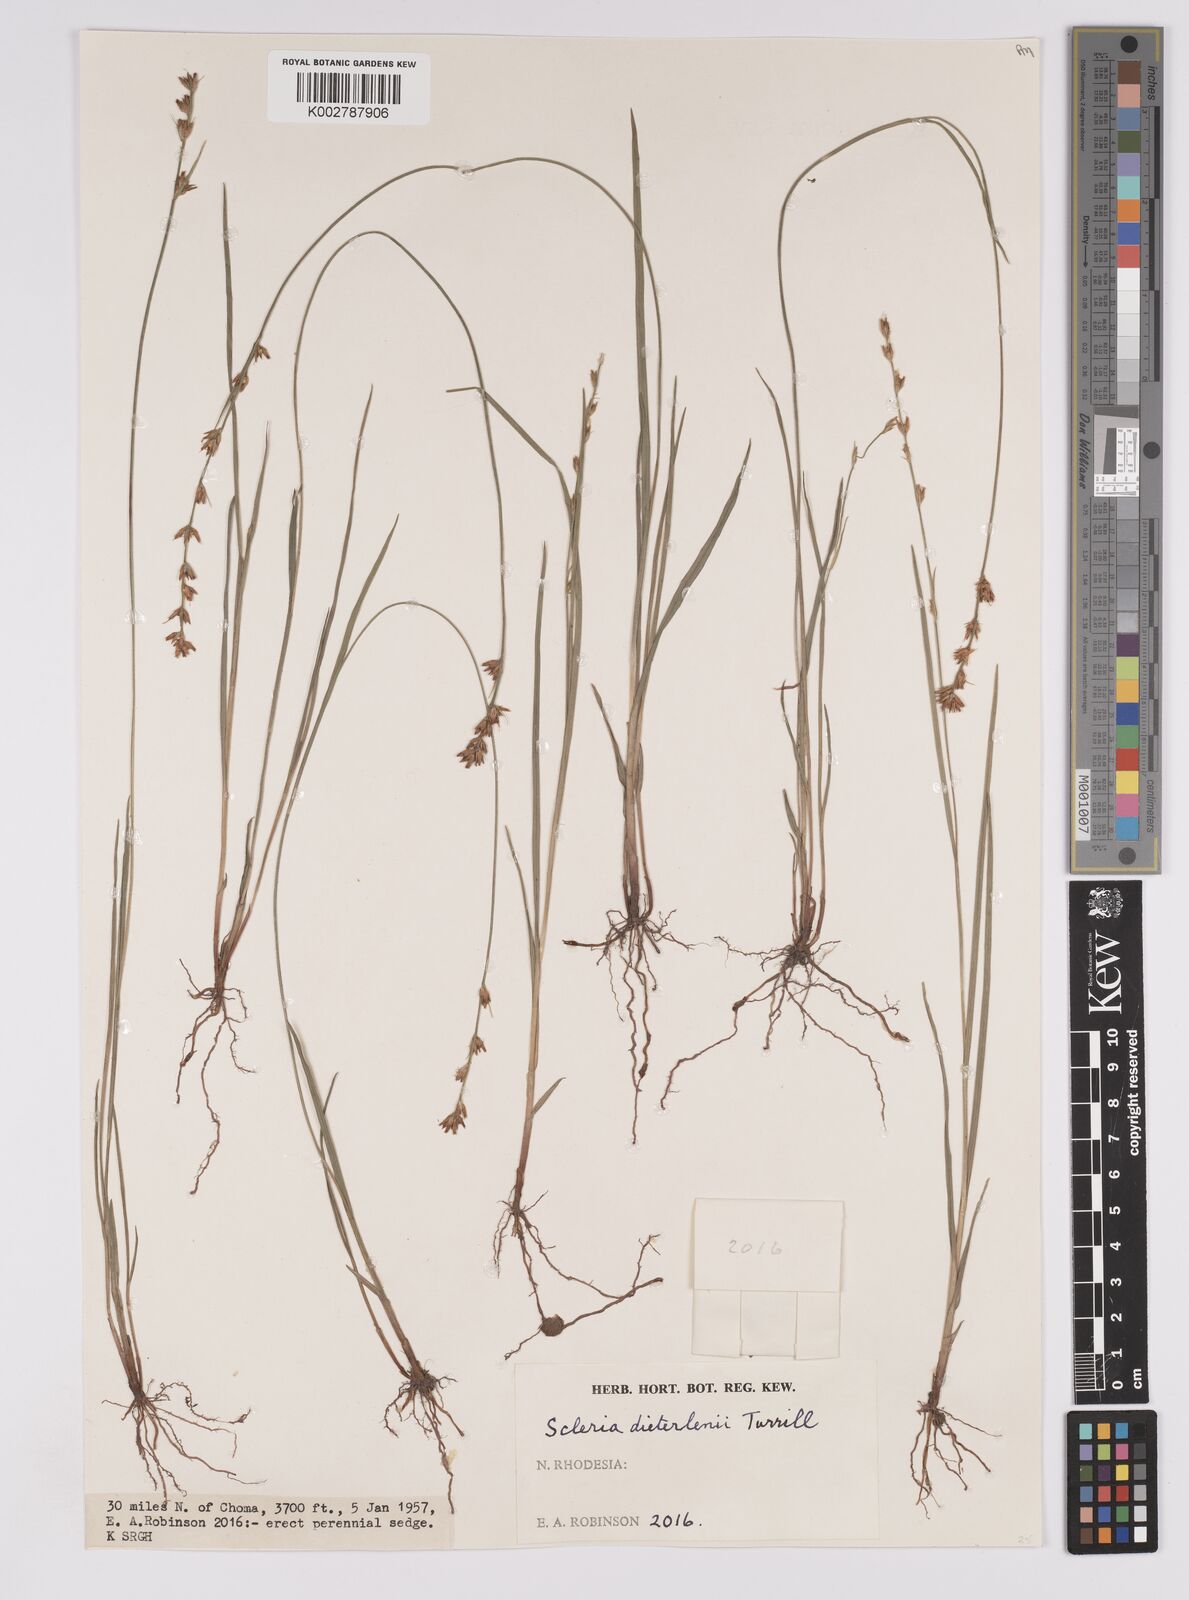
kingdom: Plantae
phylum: Tracheophyta
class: Liliopsida
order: Poales
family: Cyperaceae
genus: Scleria
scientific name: Scleria flexuosa
